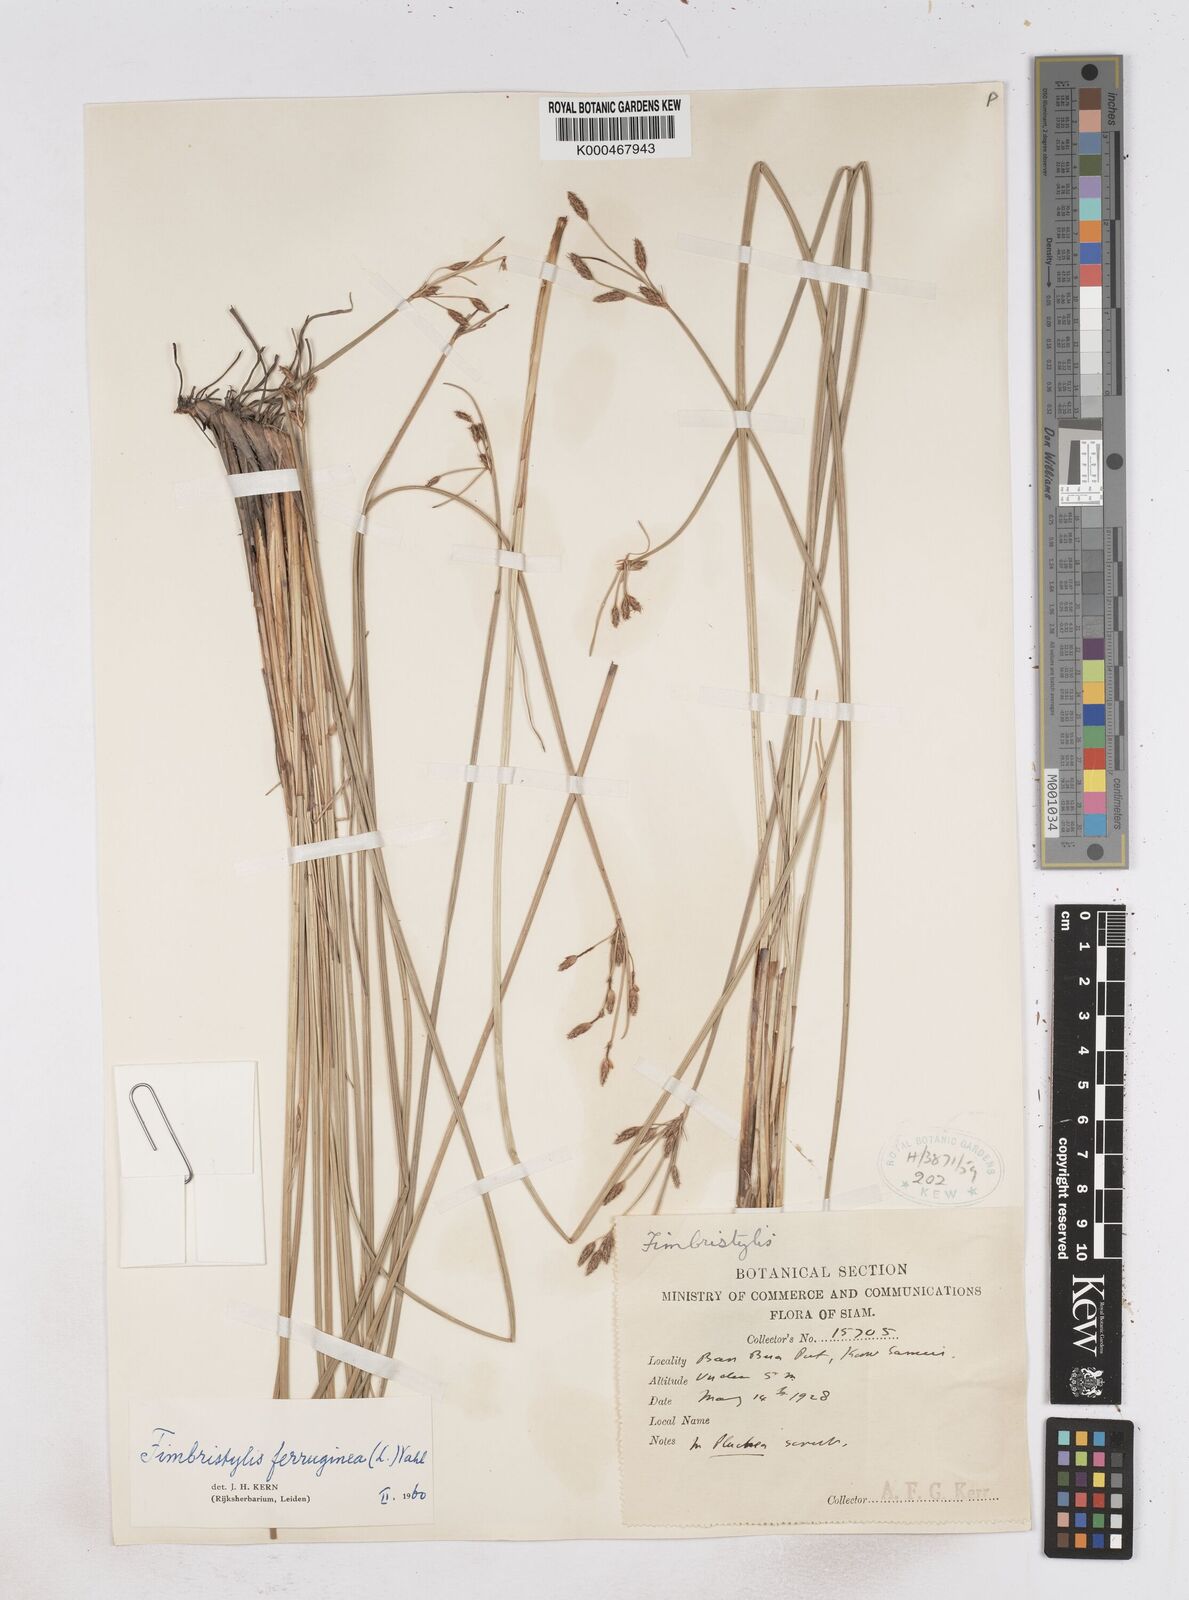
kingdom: Plantae
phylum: Tracheophyta
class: Liliopsida
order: Poales
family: Cyperaceae
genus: Fimbristylis
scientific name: Fimbristylis ferruginea
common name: West indian fimbry
